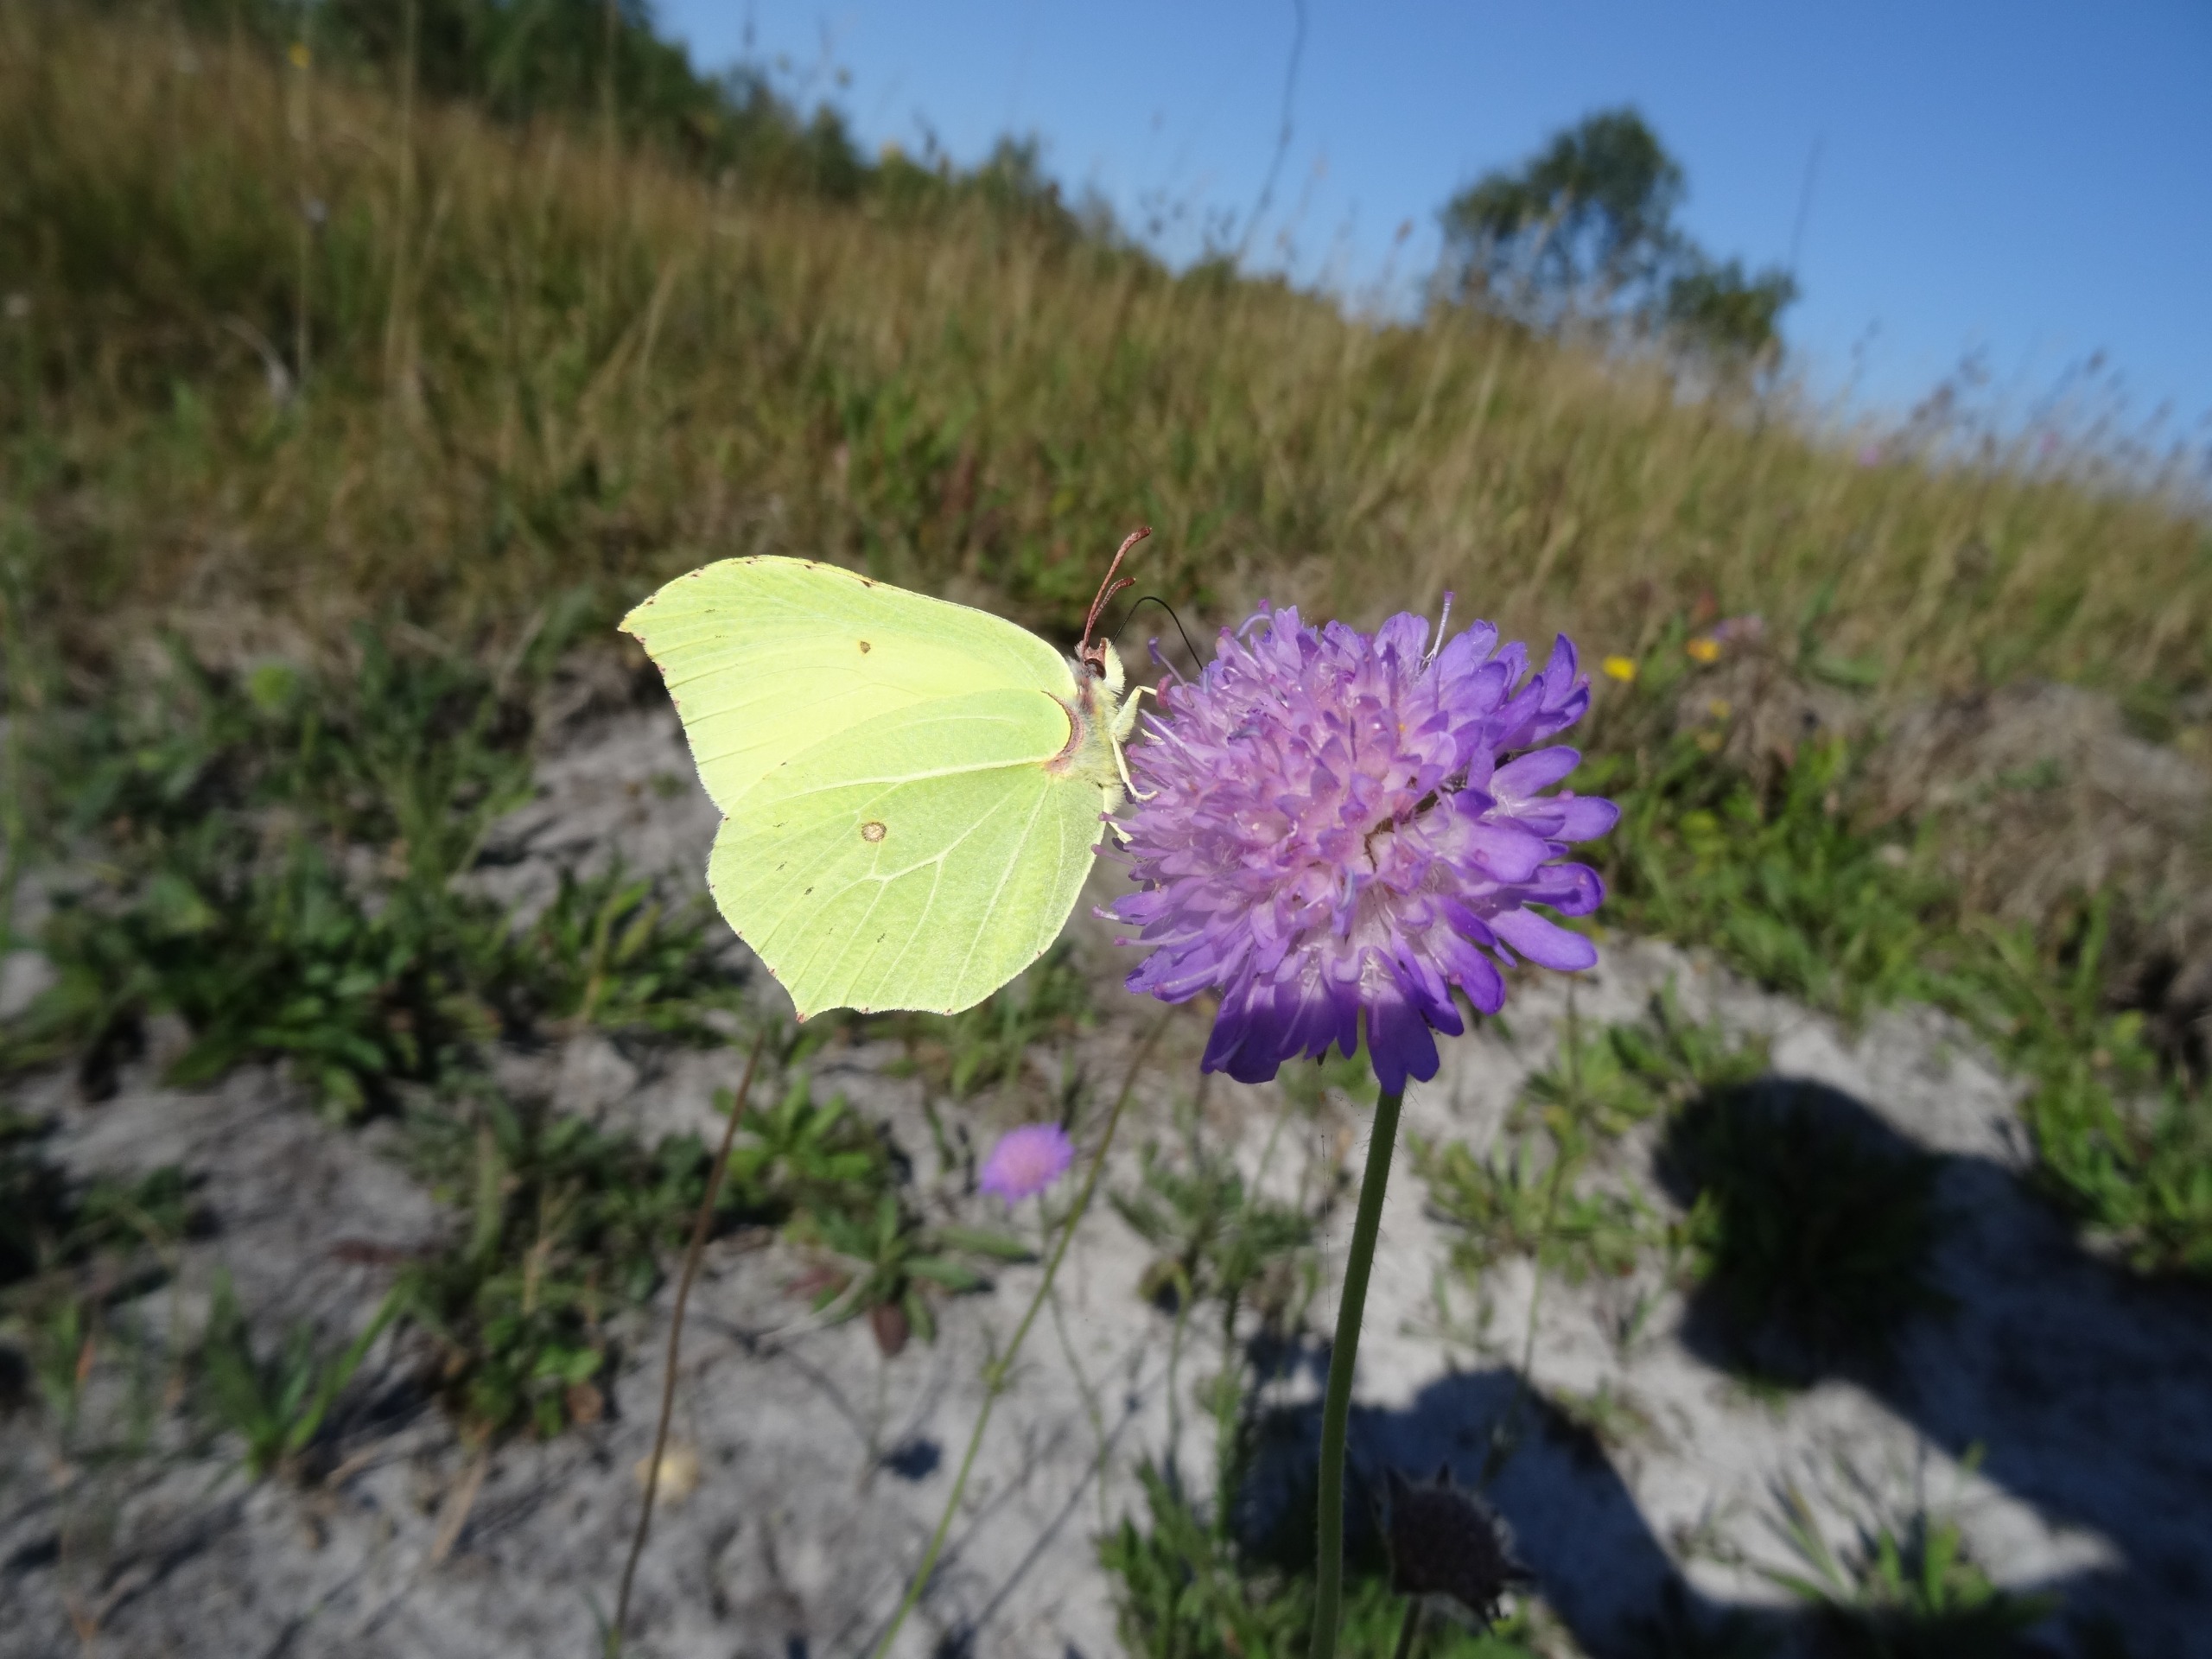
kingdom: Animalia
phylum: Arthropoda
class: Insecta
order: Lepidoptera
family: Pieridae
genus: Gonepteryx
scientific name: Gonepteryx rhamni
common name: Citronsommerfugl
